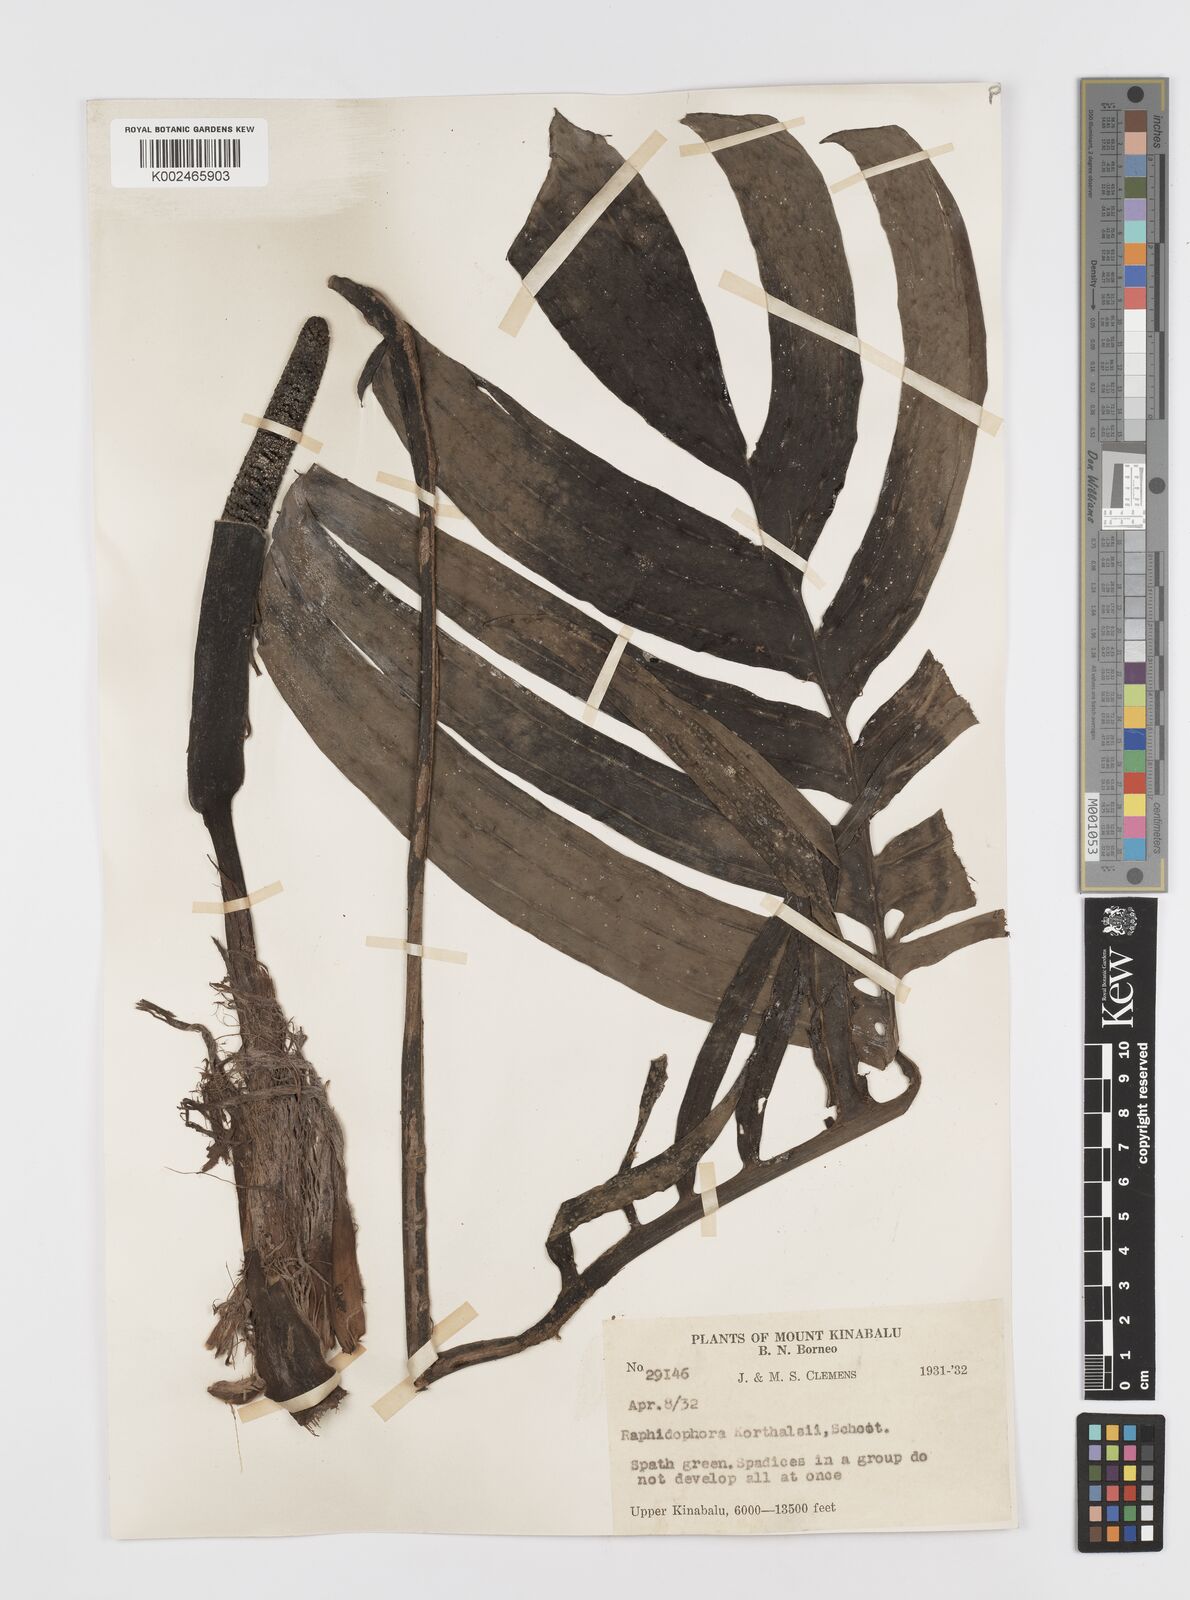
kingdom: Plantae
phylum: Tracheophyta
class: Liliopsida
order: Alismatales
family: Araceae
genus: Rhaphidophora
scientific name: Rhaphidophora korthalsii
